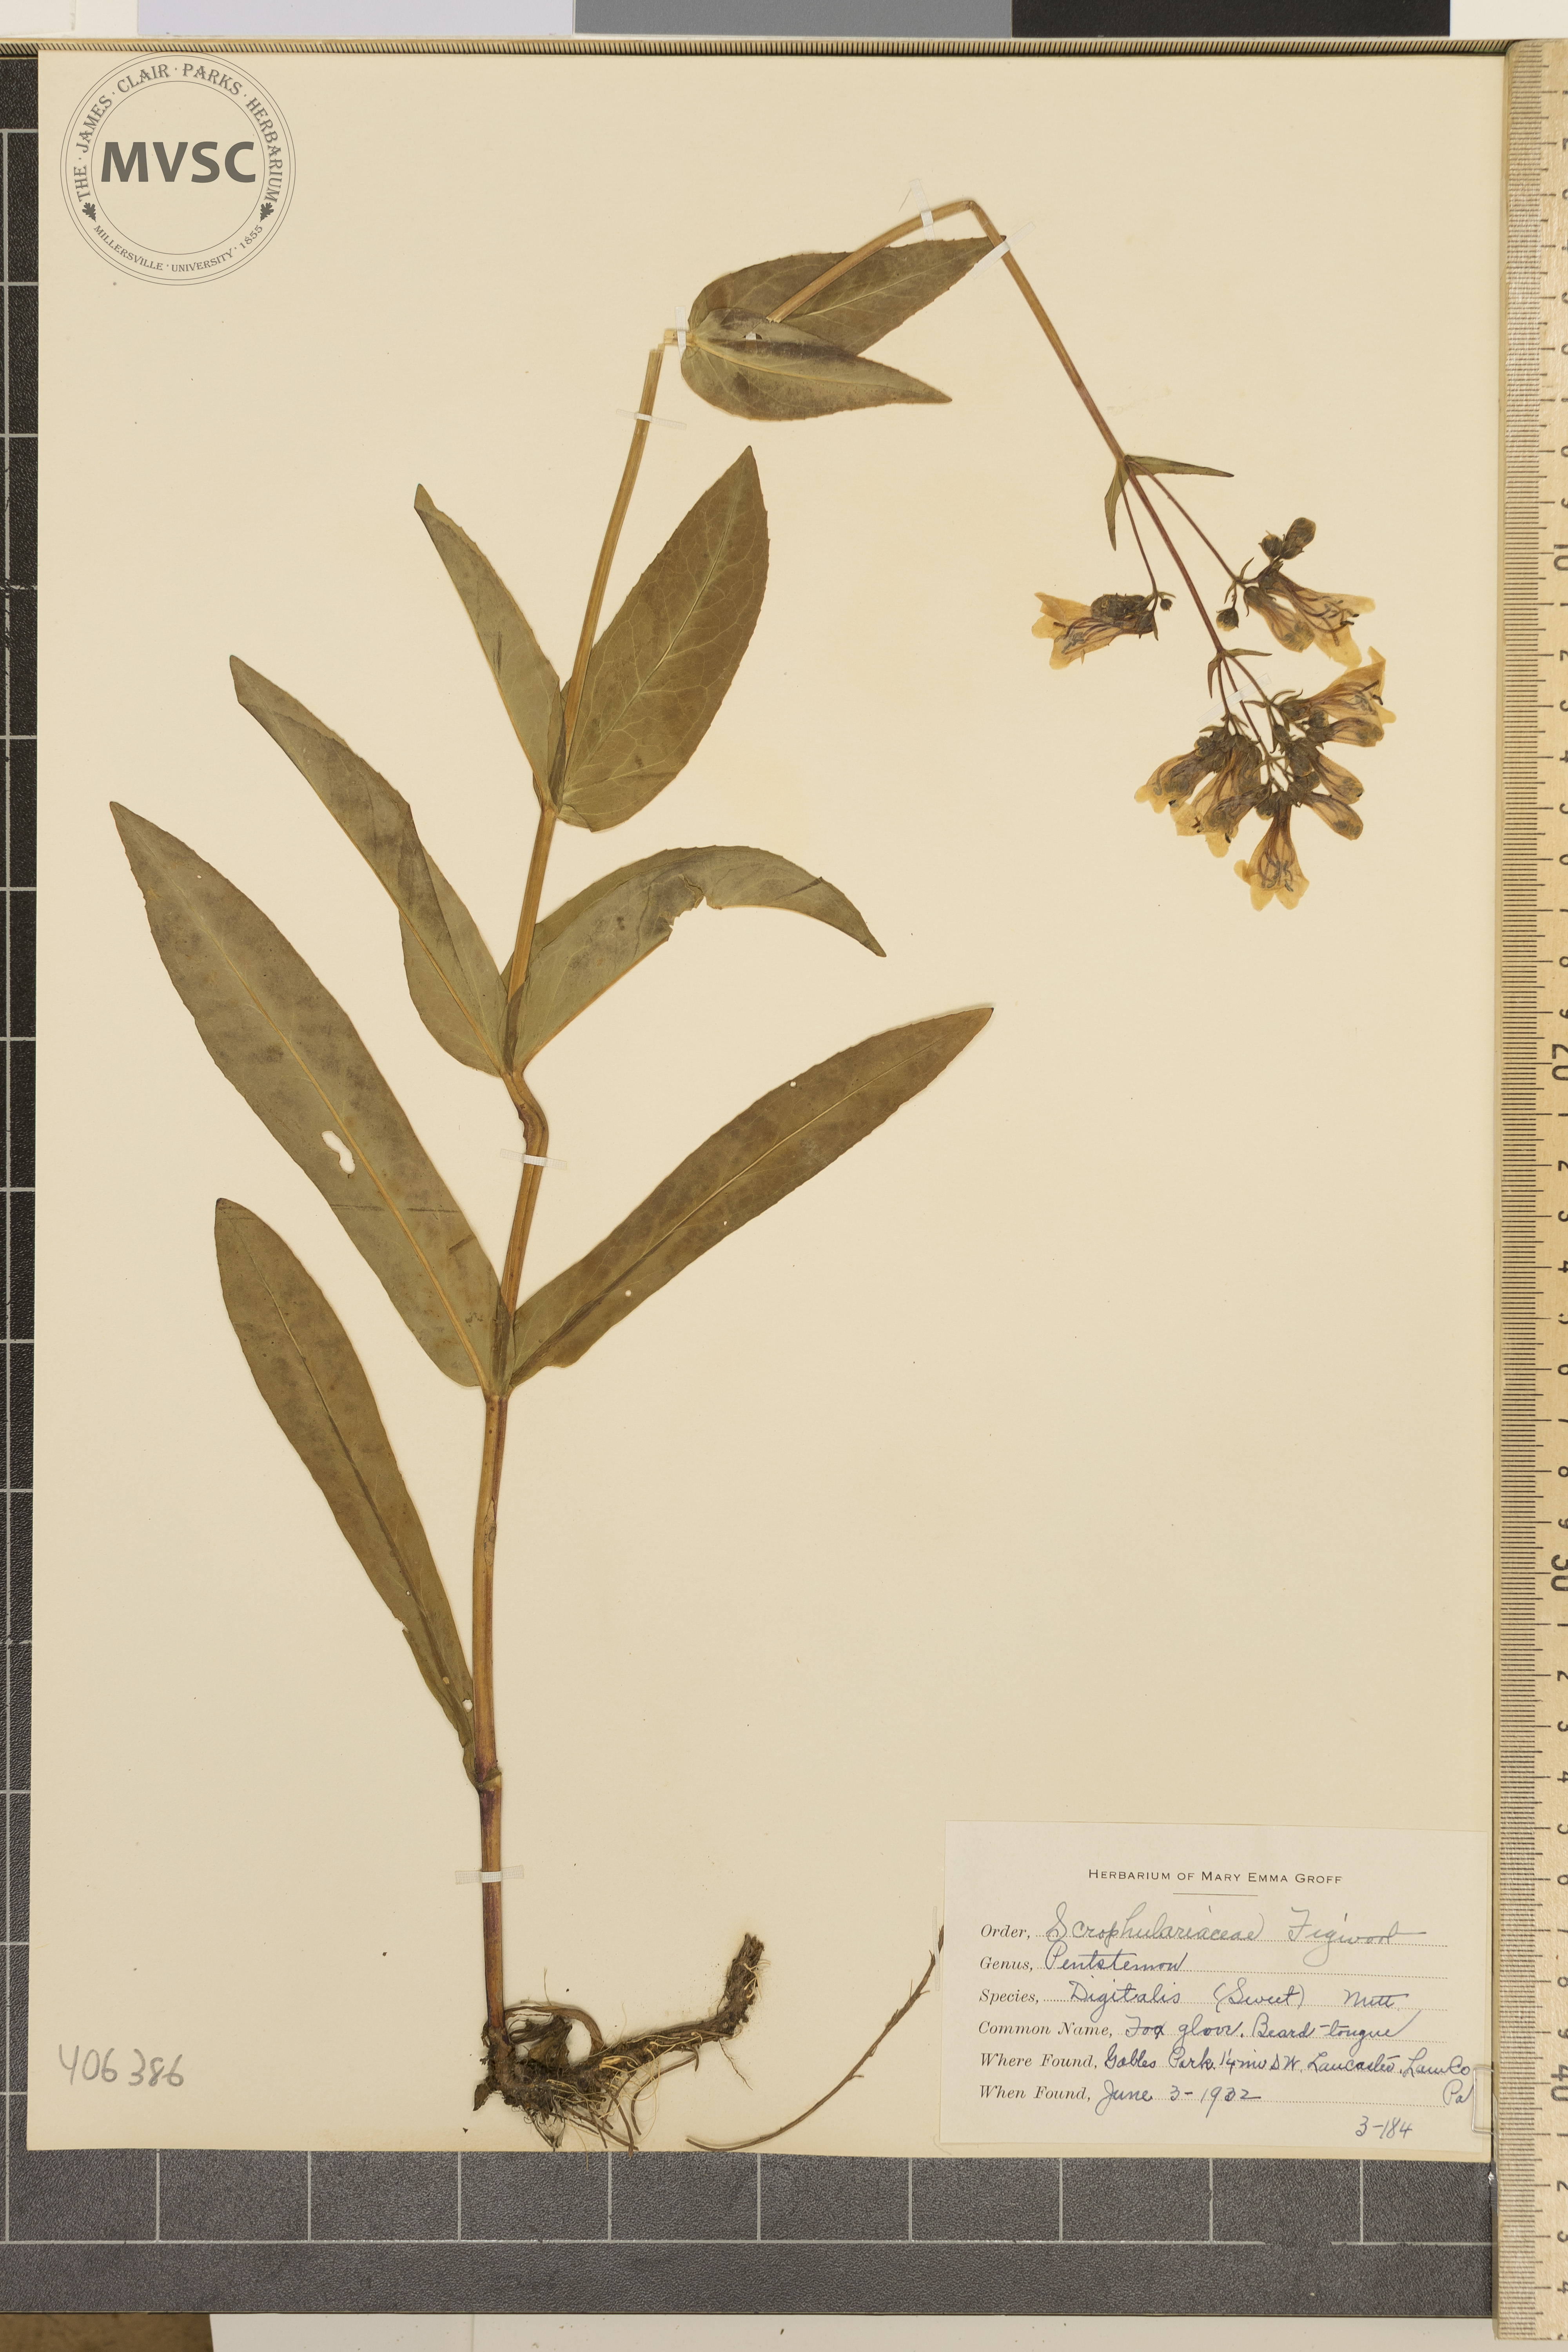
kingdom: Plantae
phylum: Tracheophyta
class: Magnoliopsida
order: Lamiales
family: Plantaginaceae
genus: Penstemon
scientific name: Penstemon digitalis
